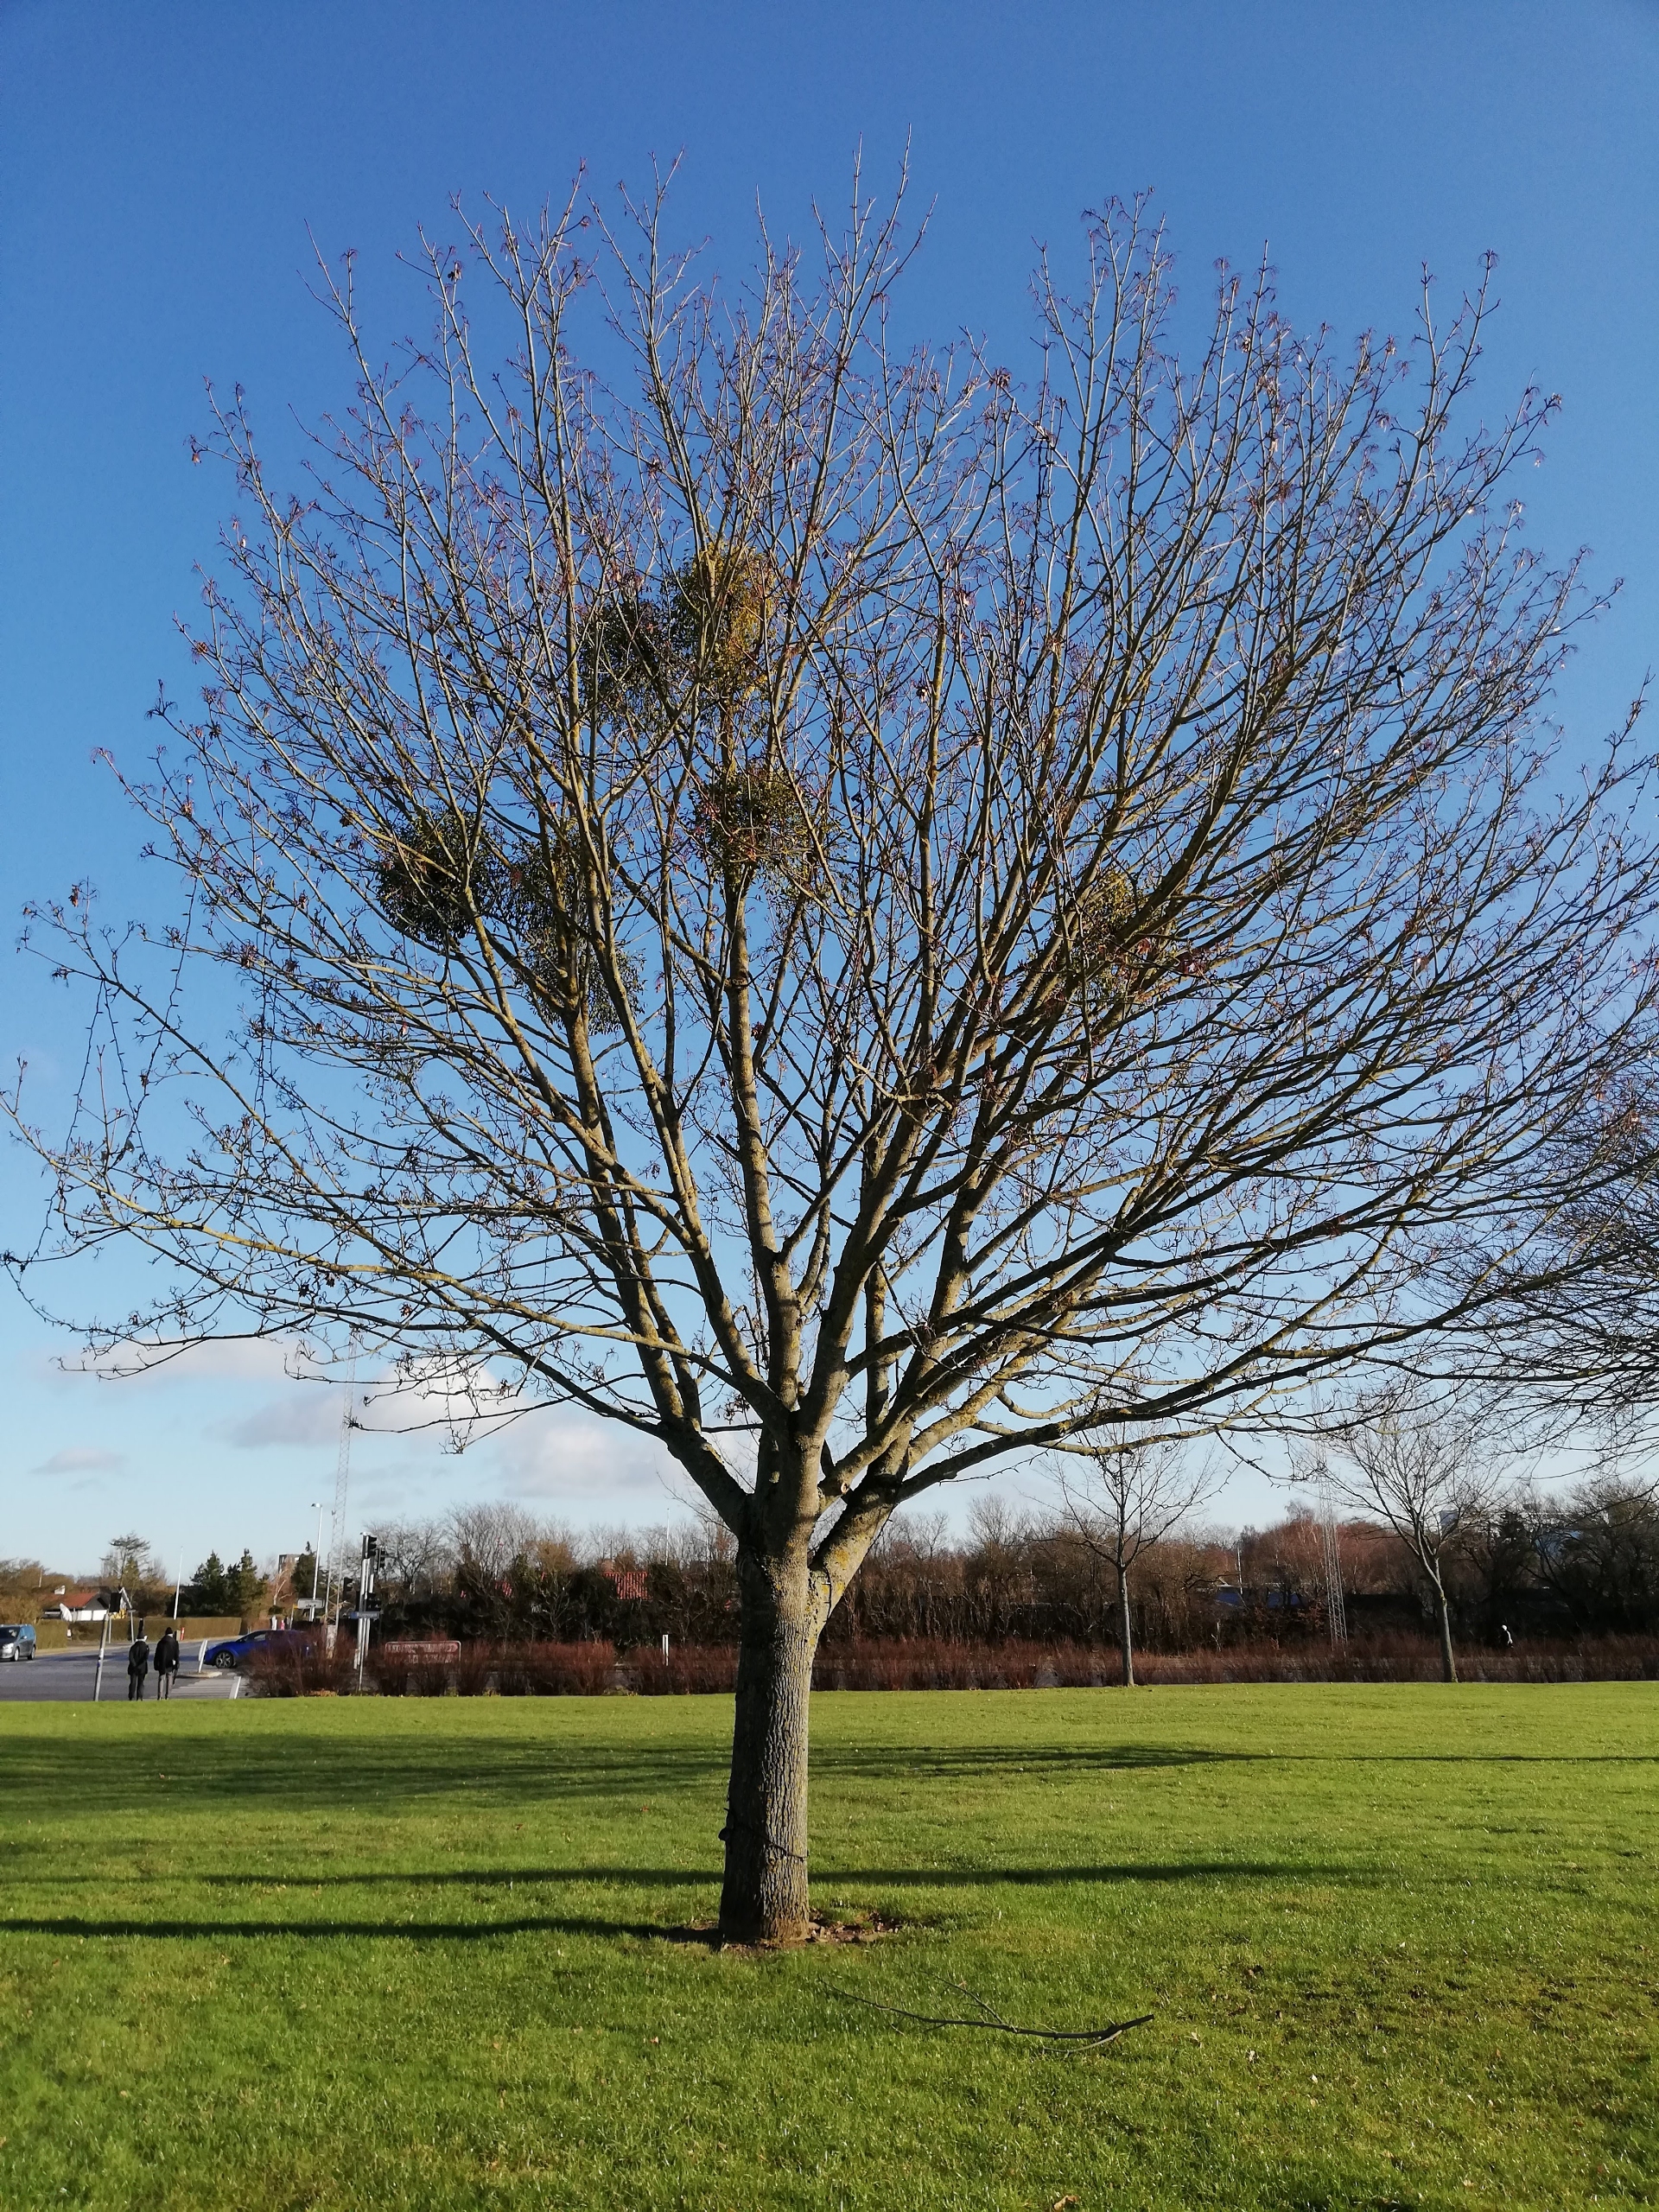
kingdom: Plantae
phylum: Tracheophyta
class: Magnoliopsida
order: Santalales
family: Viscaceae
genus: Viscum
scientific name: Viscum album
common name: Mistelten
